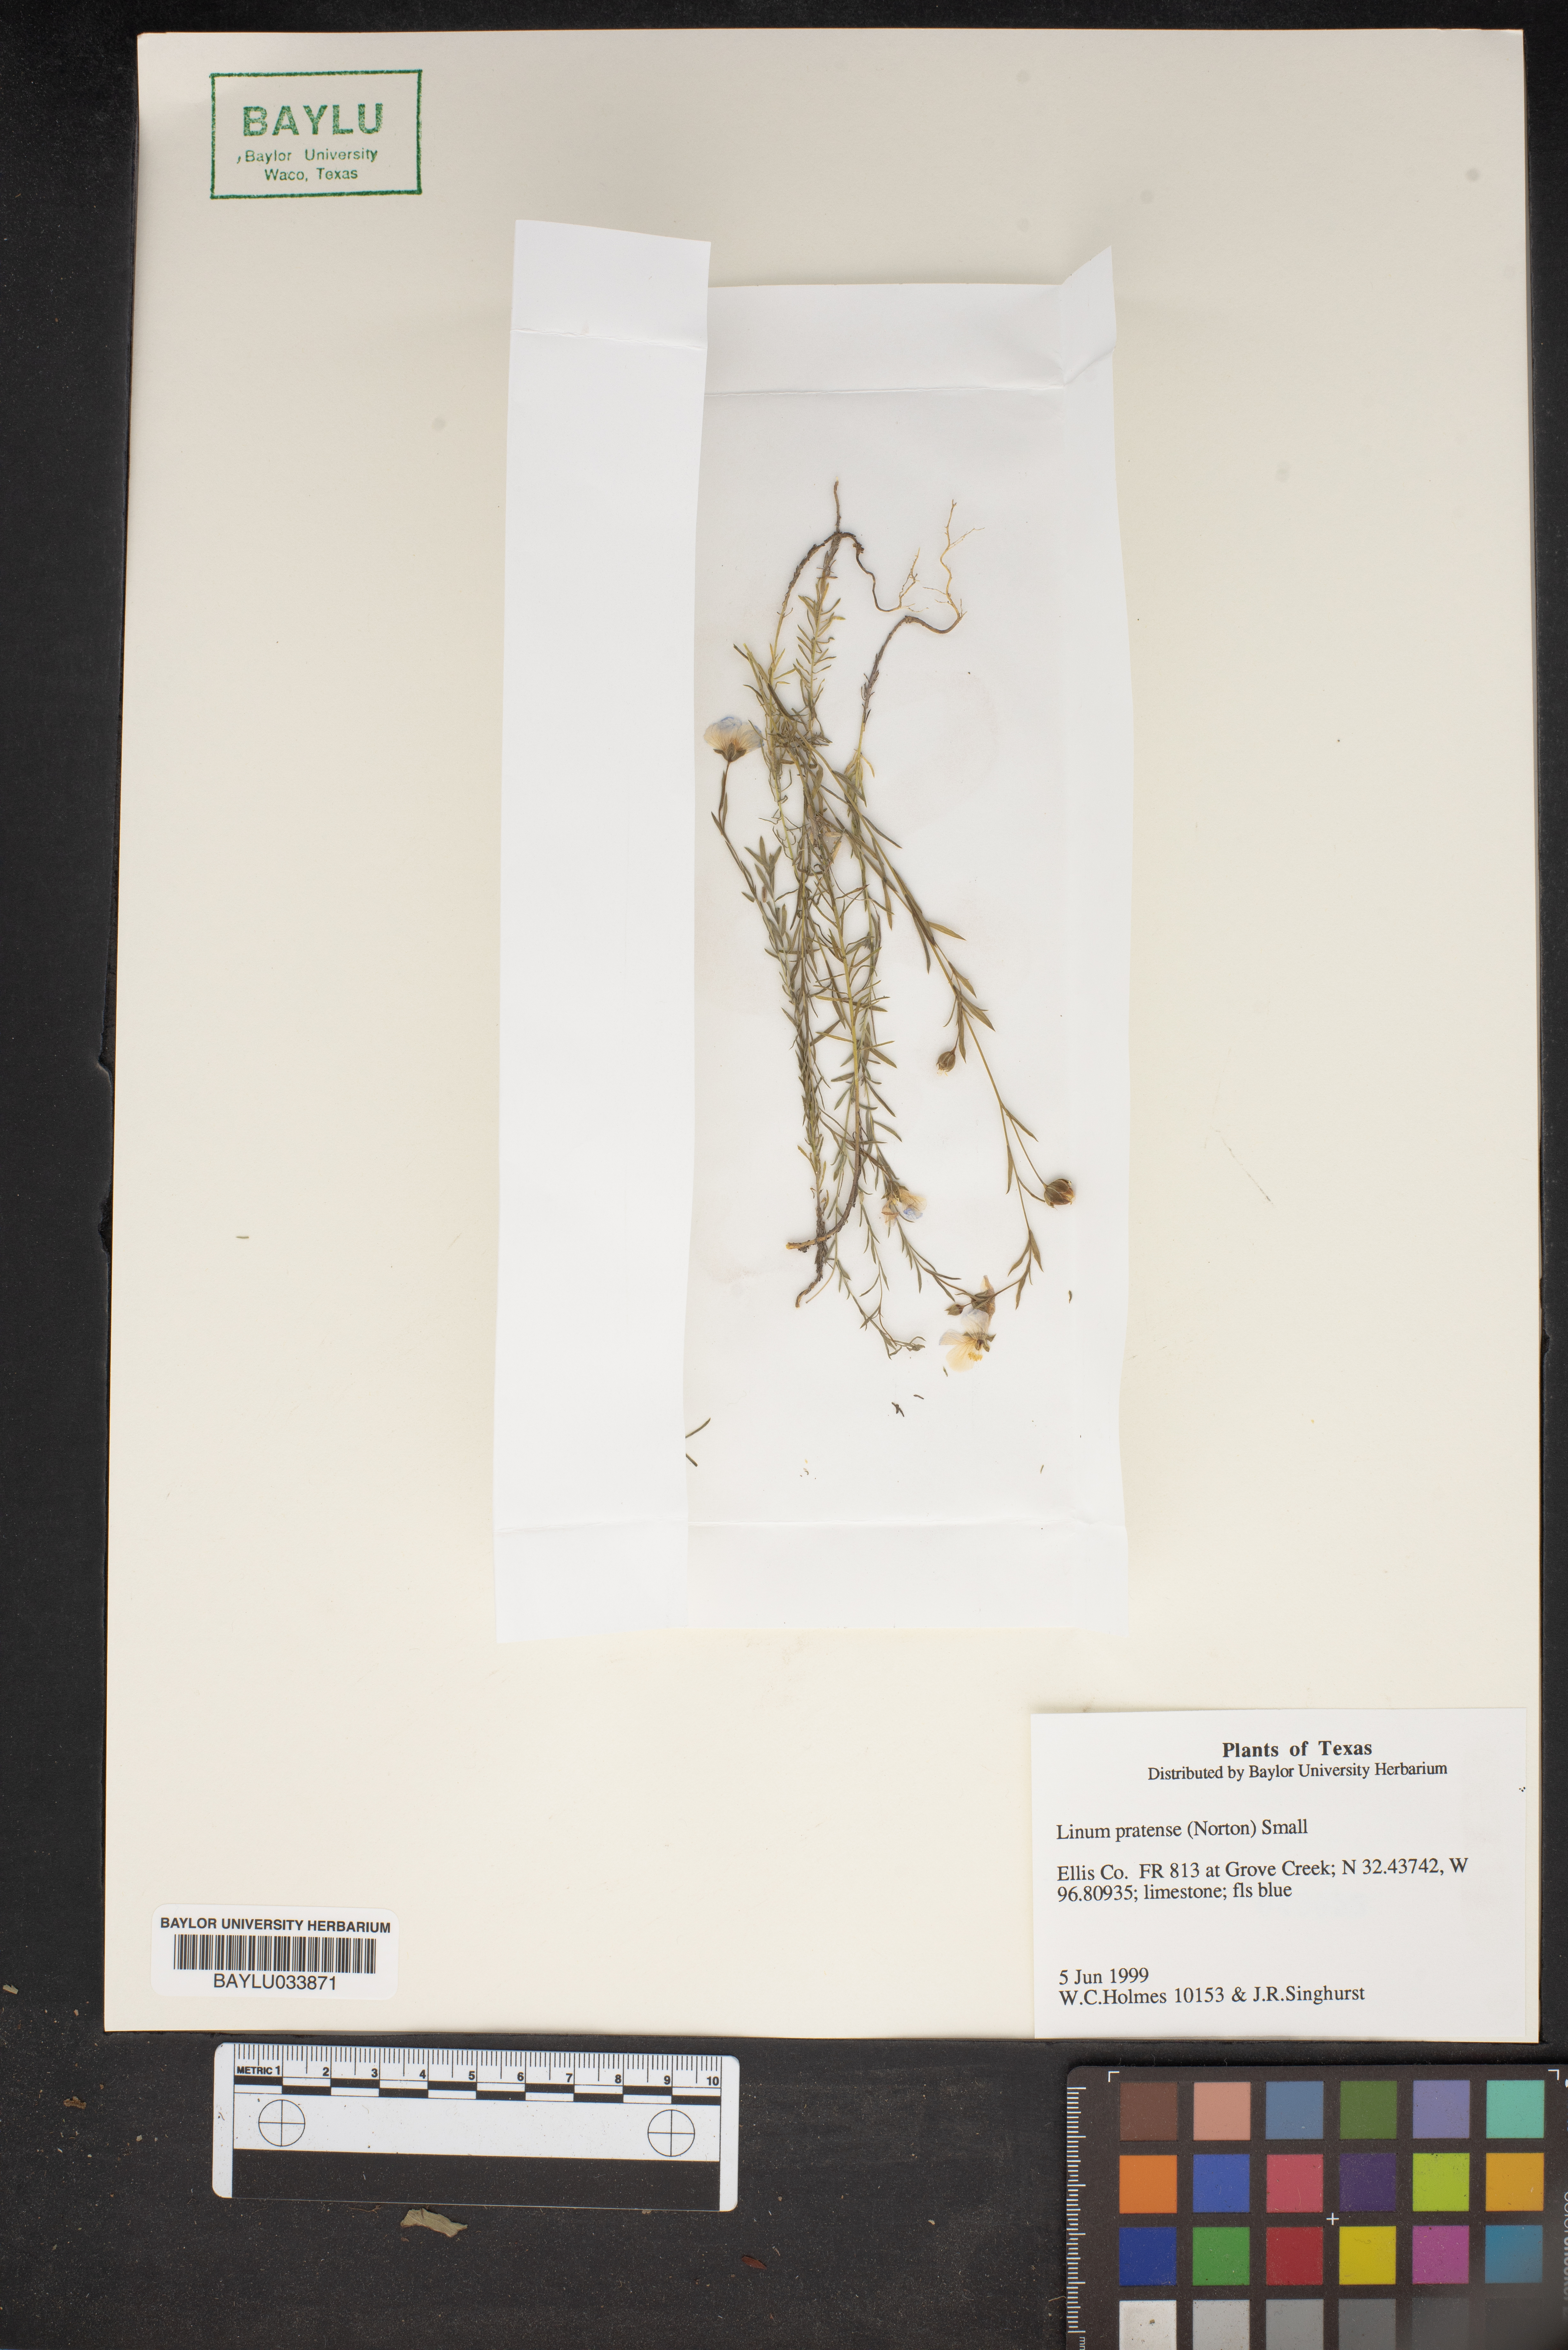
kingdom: Plantae
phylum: Tracheophyta
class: Magnoliopsida
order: Malpighiales
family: Linaceae
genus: Linum
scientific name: Linum pratense
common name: Norton's flax
